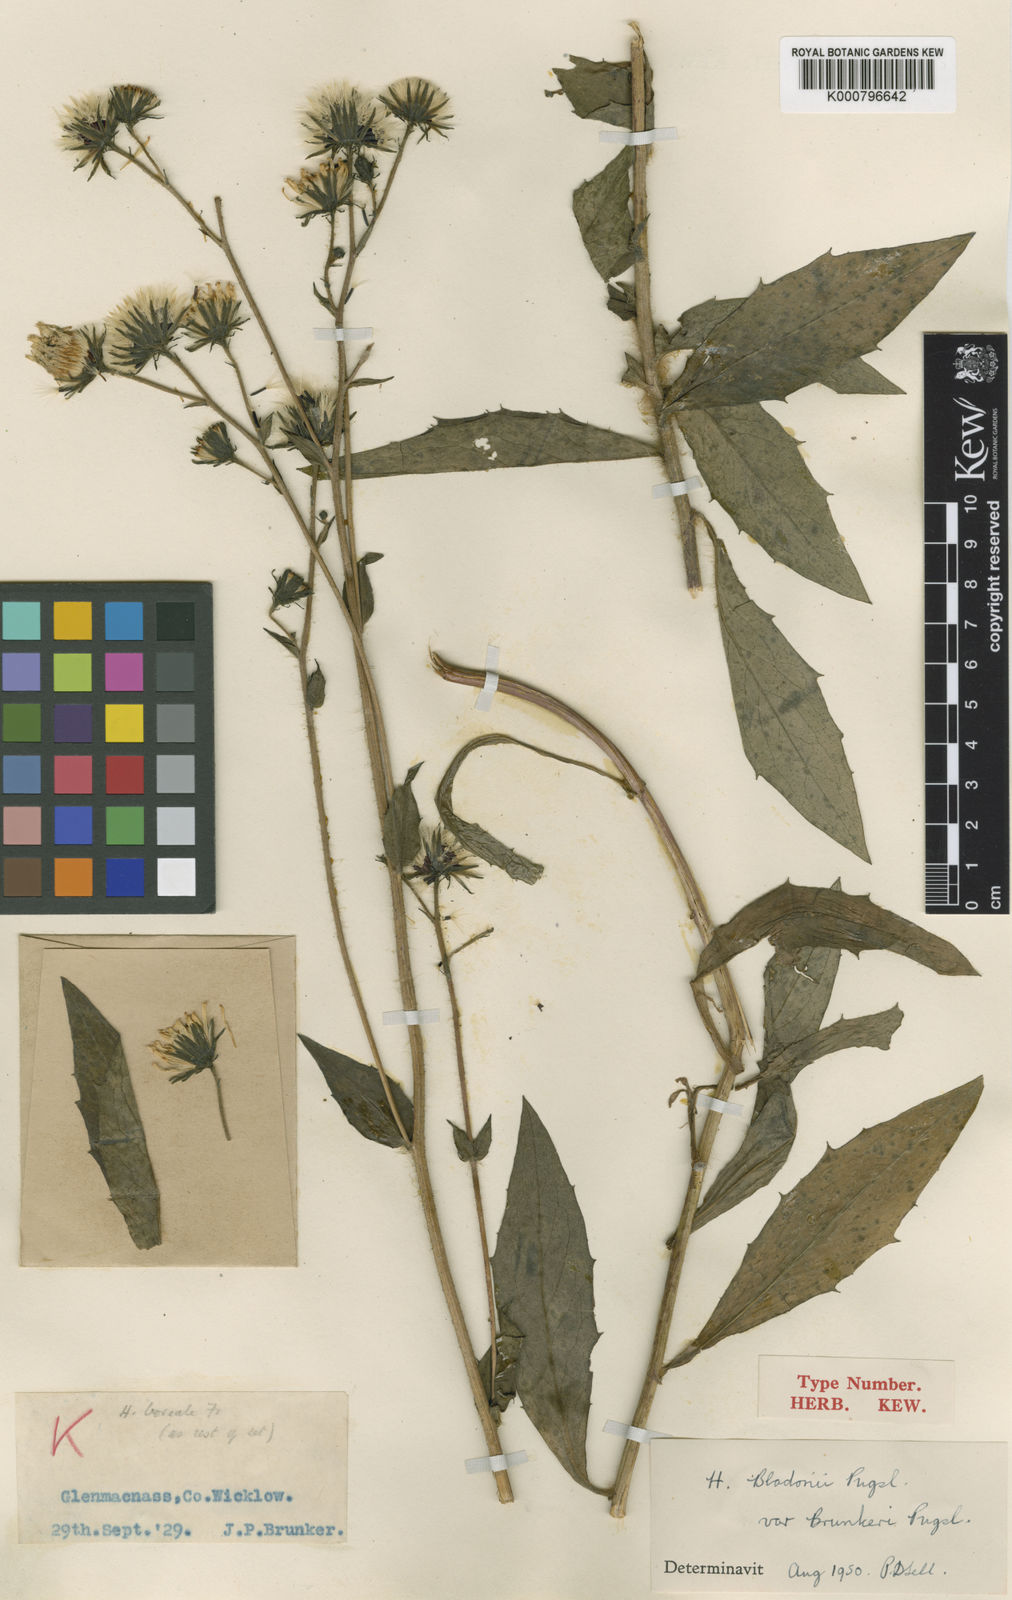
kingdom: Plantae
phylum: Tracheophyta
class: Magnoliopsida
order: Asterales
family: Asteraceae
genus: Hieracium
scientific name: Hieracium sabaudum
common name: New england hawkweed
